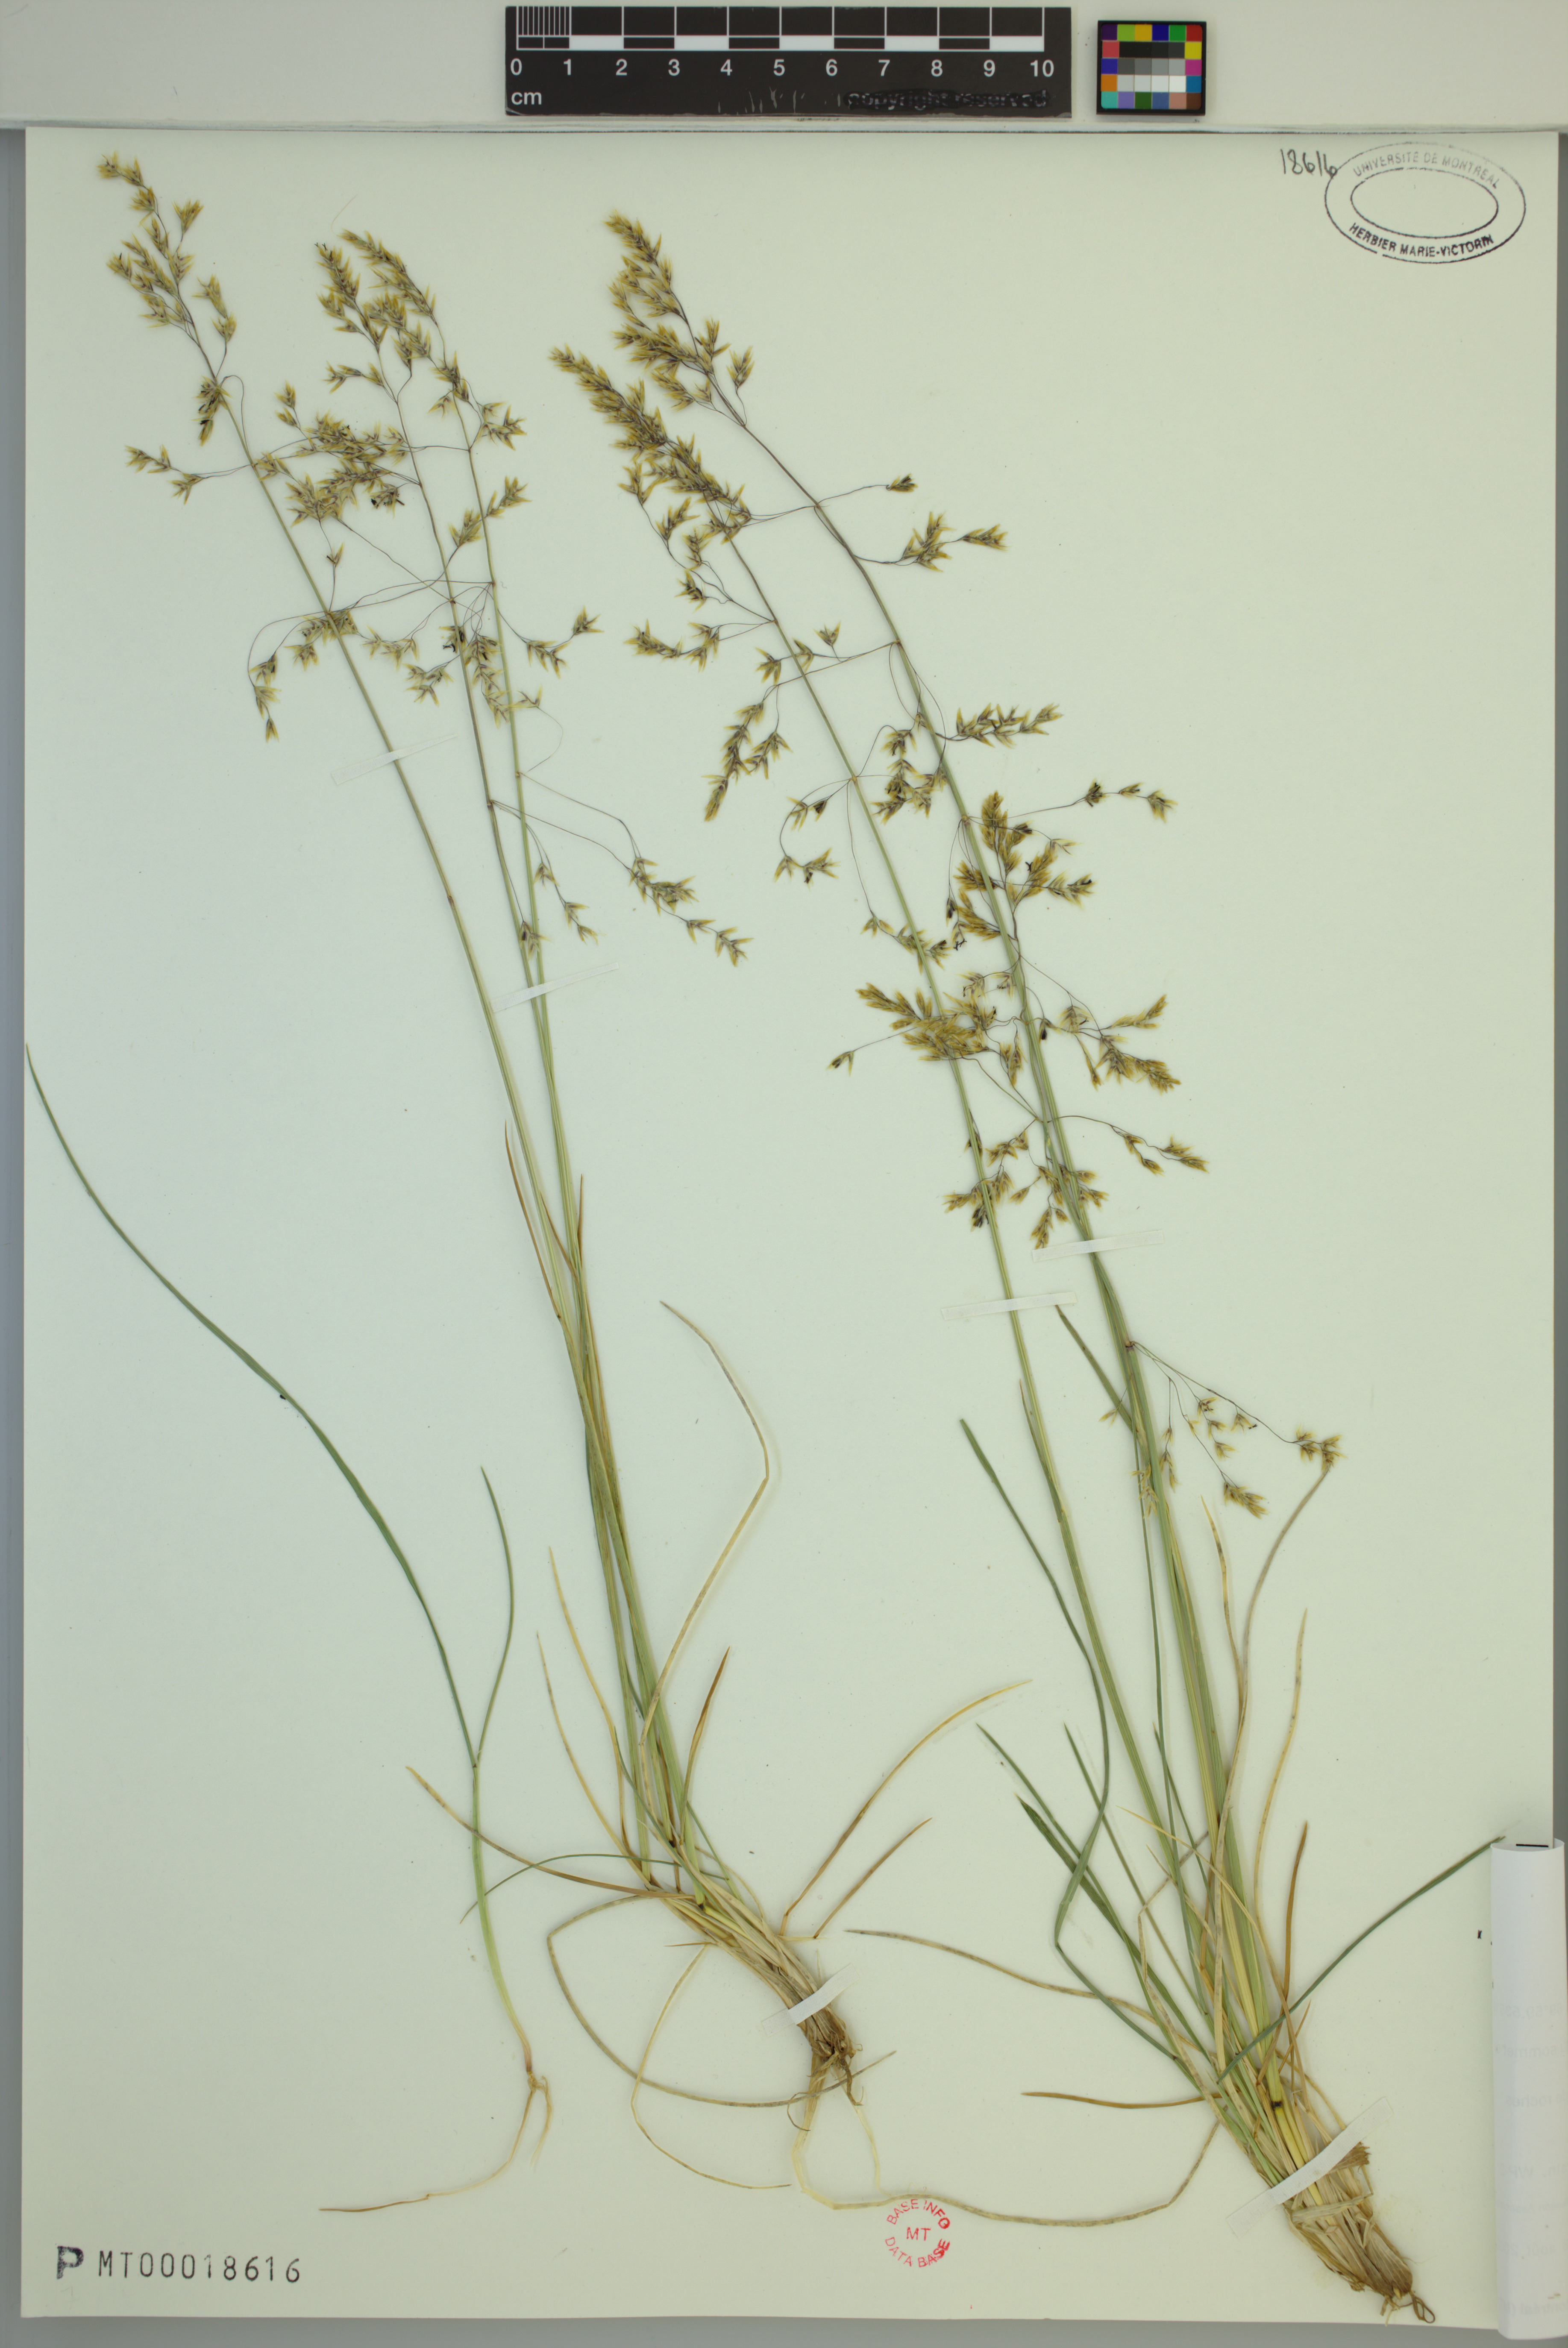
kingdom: Plantae
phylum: Tracheophyta
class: Liliopsida
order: Poales
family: Poaceae
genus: Deschampsia
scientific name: Deschampsia cespitosa
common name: Tufted hair-grass
